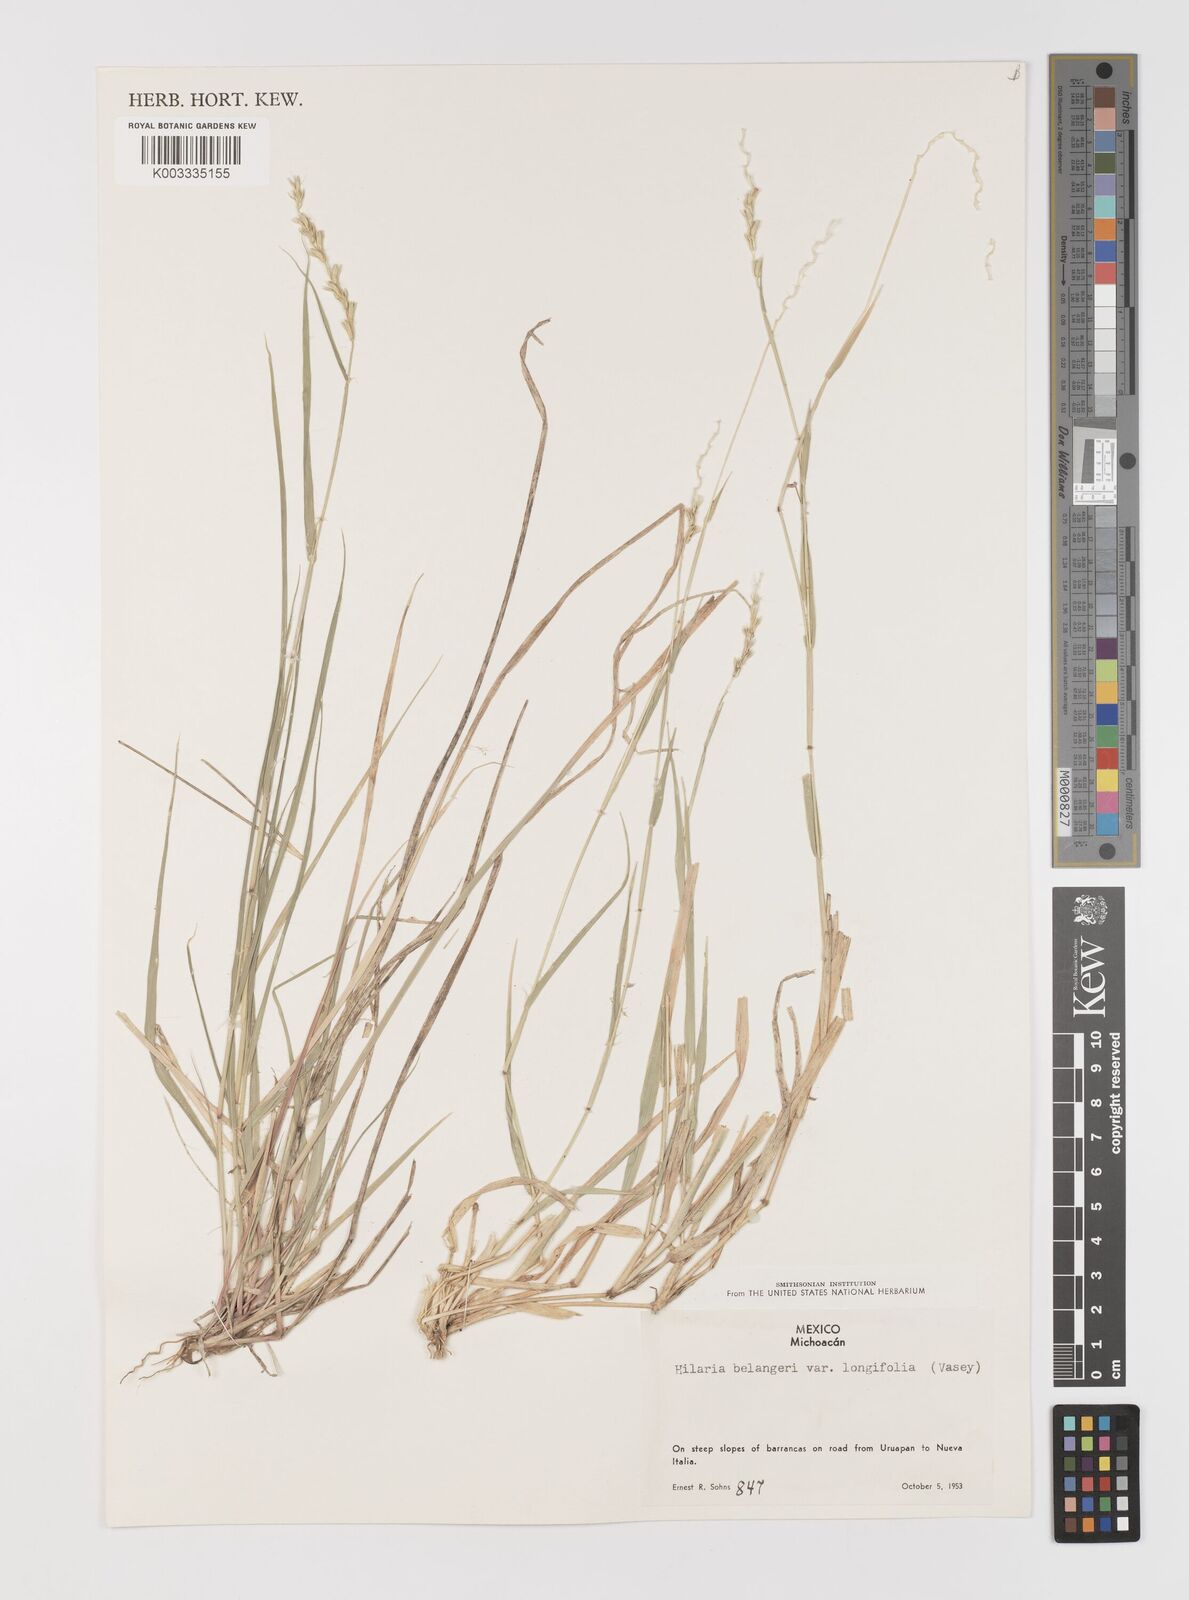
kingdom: Plantae
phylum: Tracheophyta
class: Liliopsida
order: Poales
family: Poaceae
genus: Hilaria
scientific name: Hilaria belangeri
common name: Curly-mesquite
